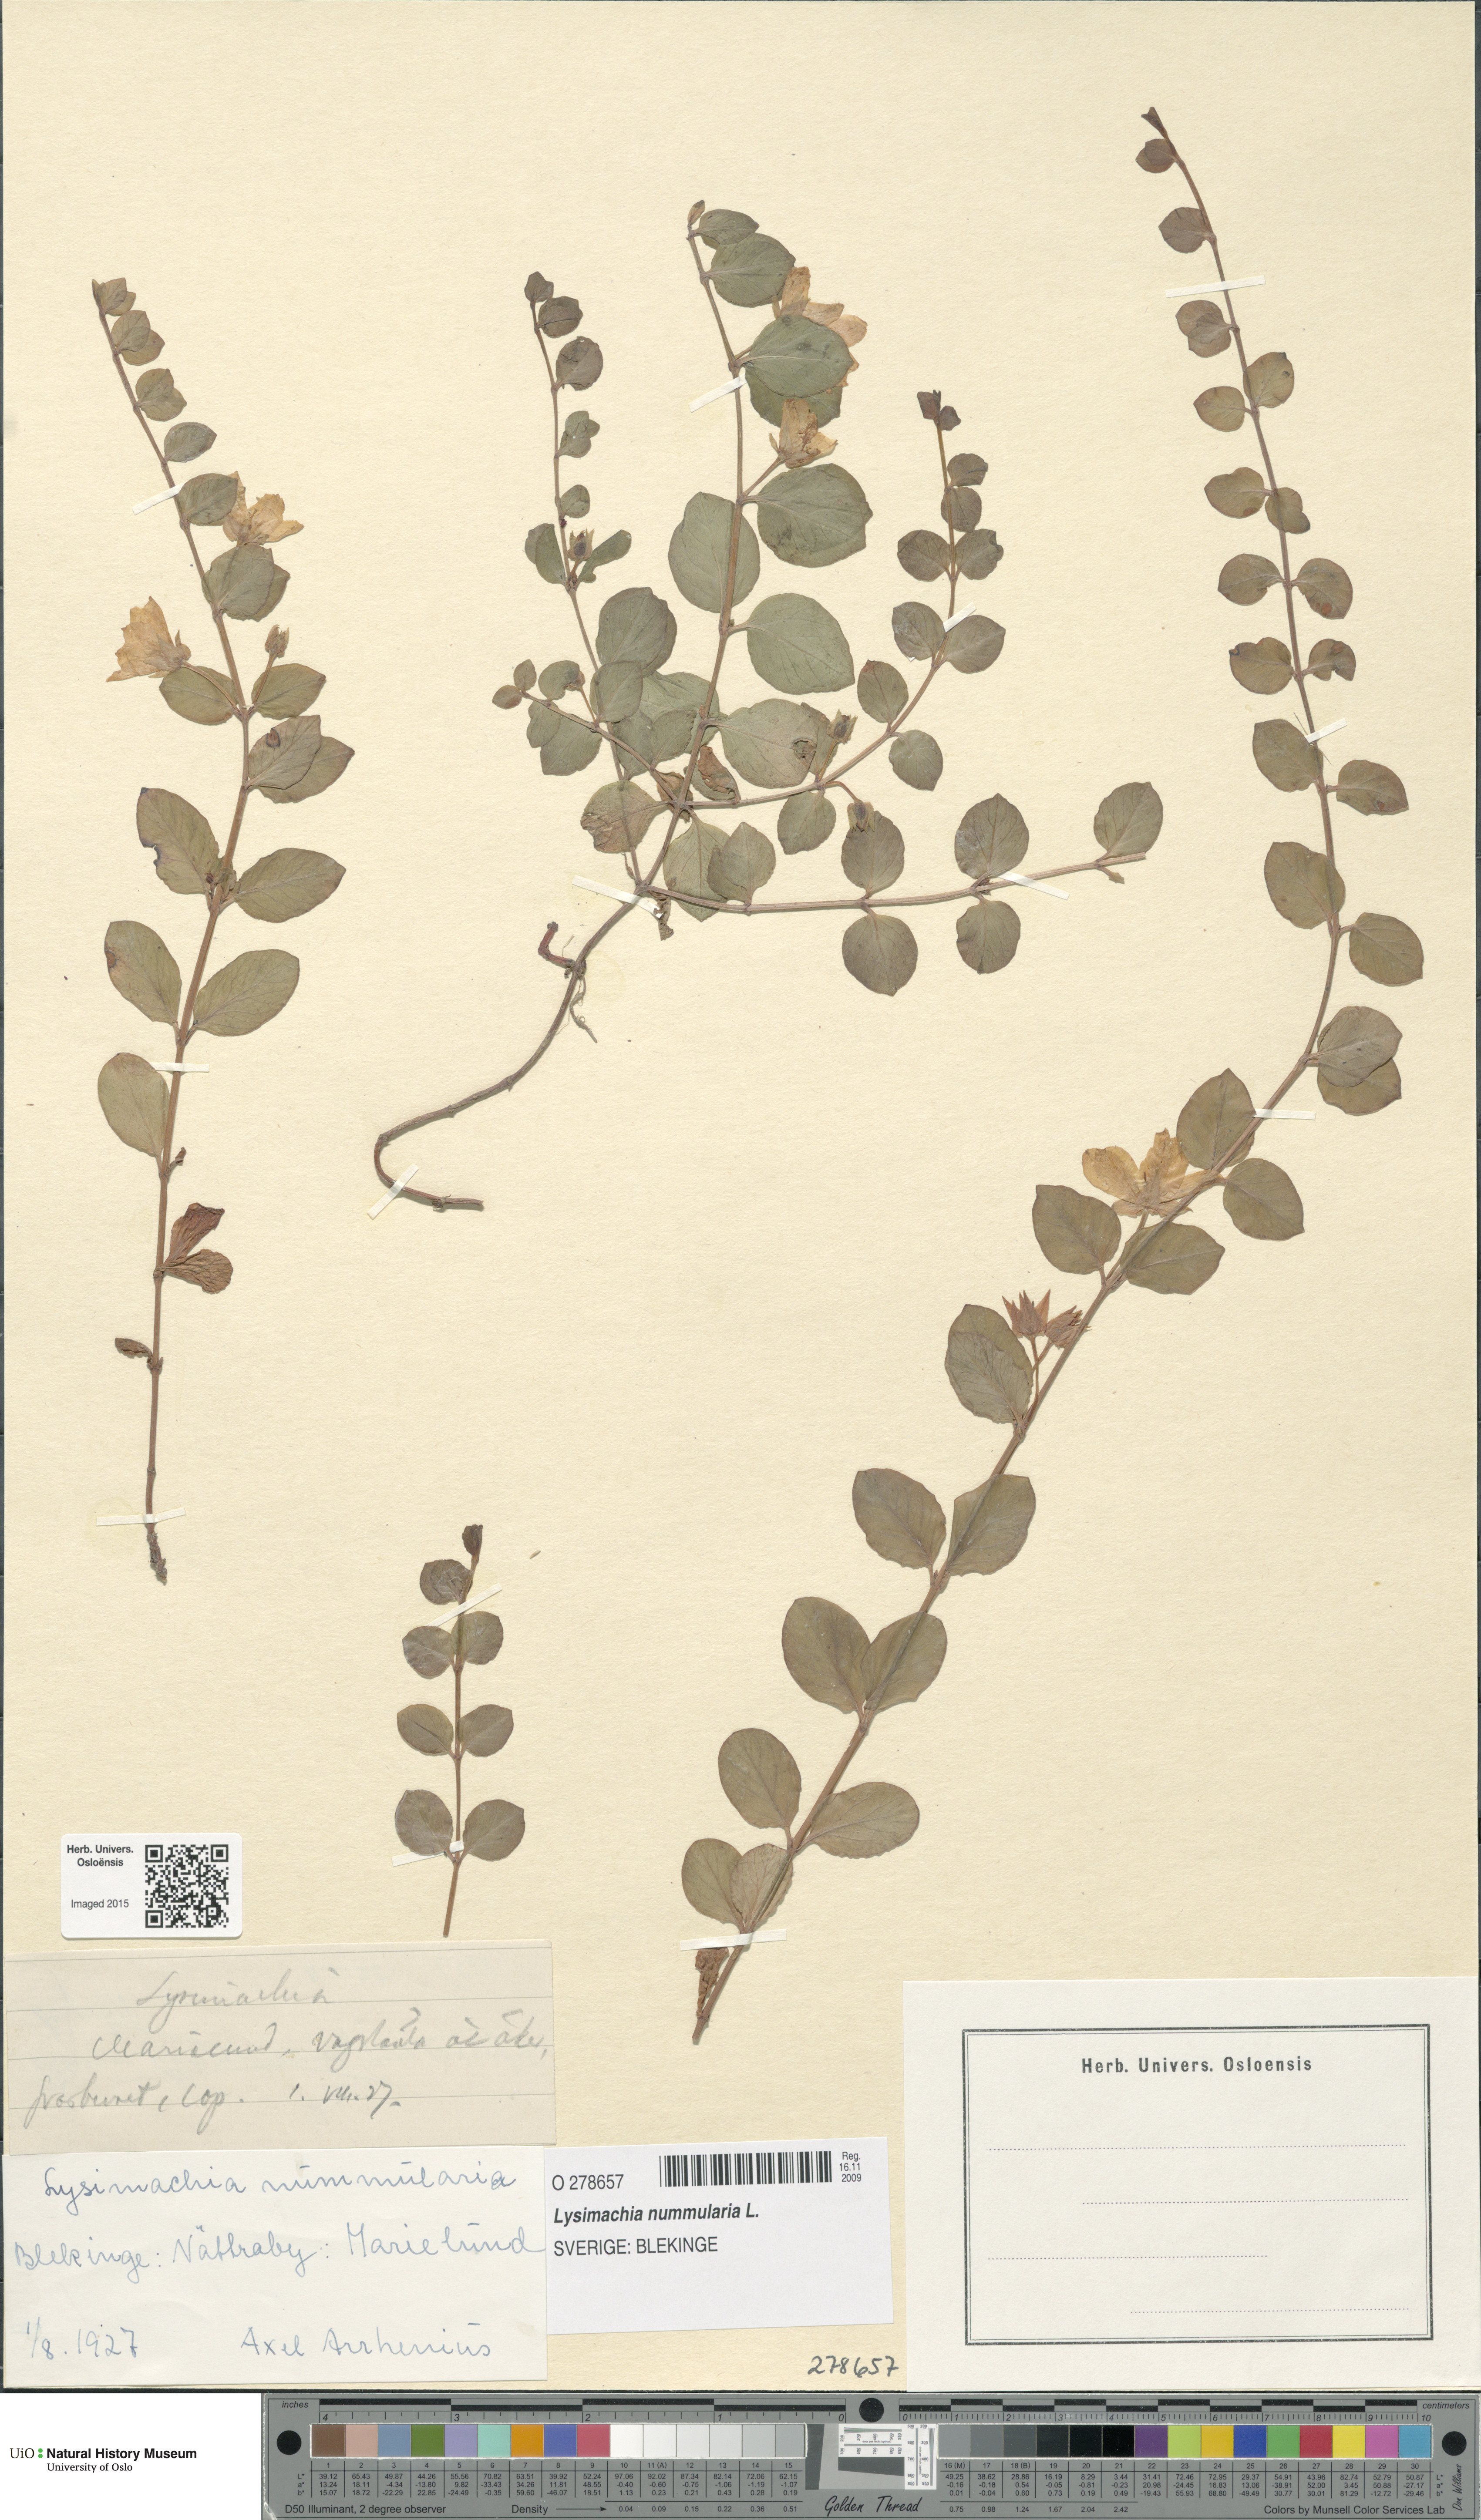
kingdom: Plantae
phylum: Tracheophyta
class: Magnoliopsida
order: Ericales
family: Primulaceae
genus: Lysimachia
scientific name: Lysimachia nummularia
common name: Moneywort
